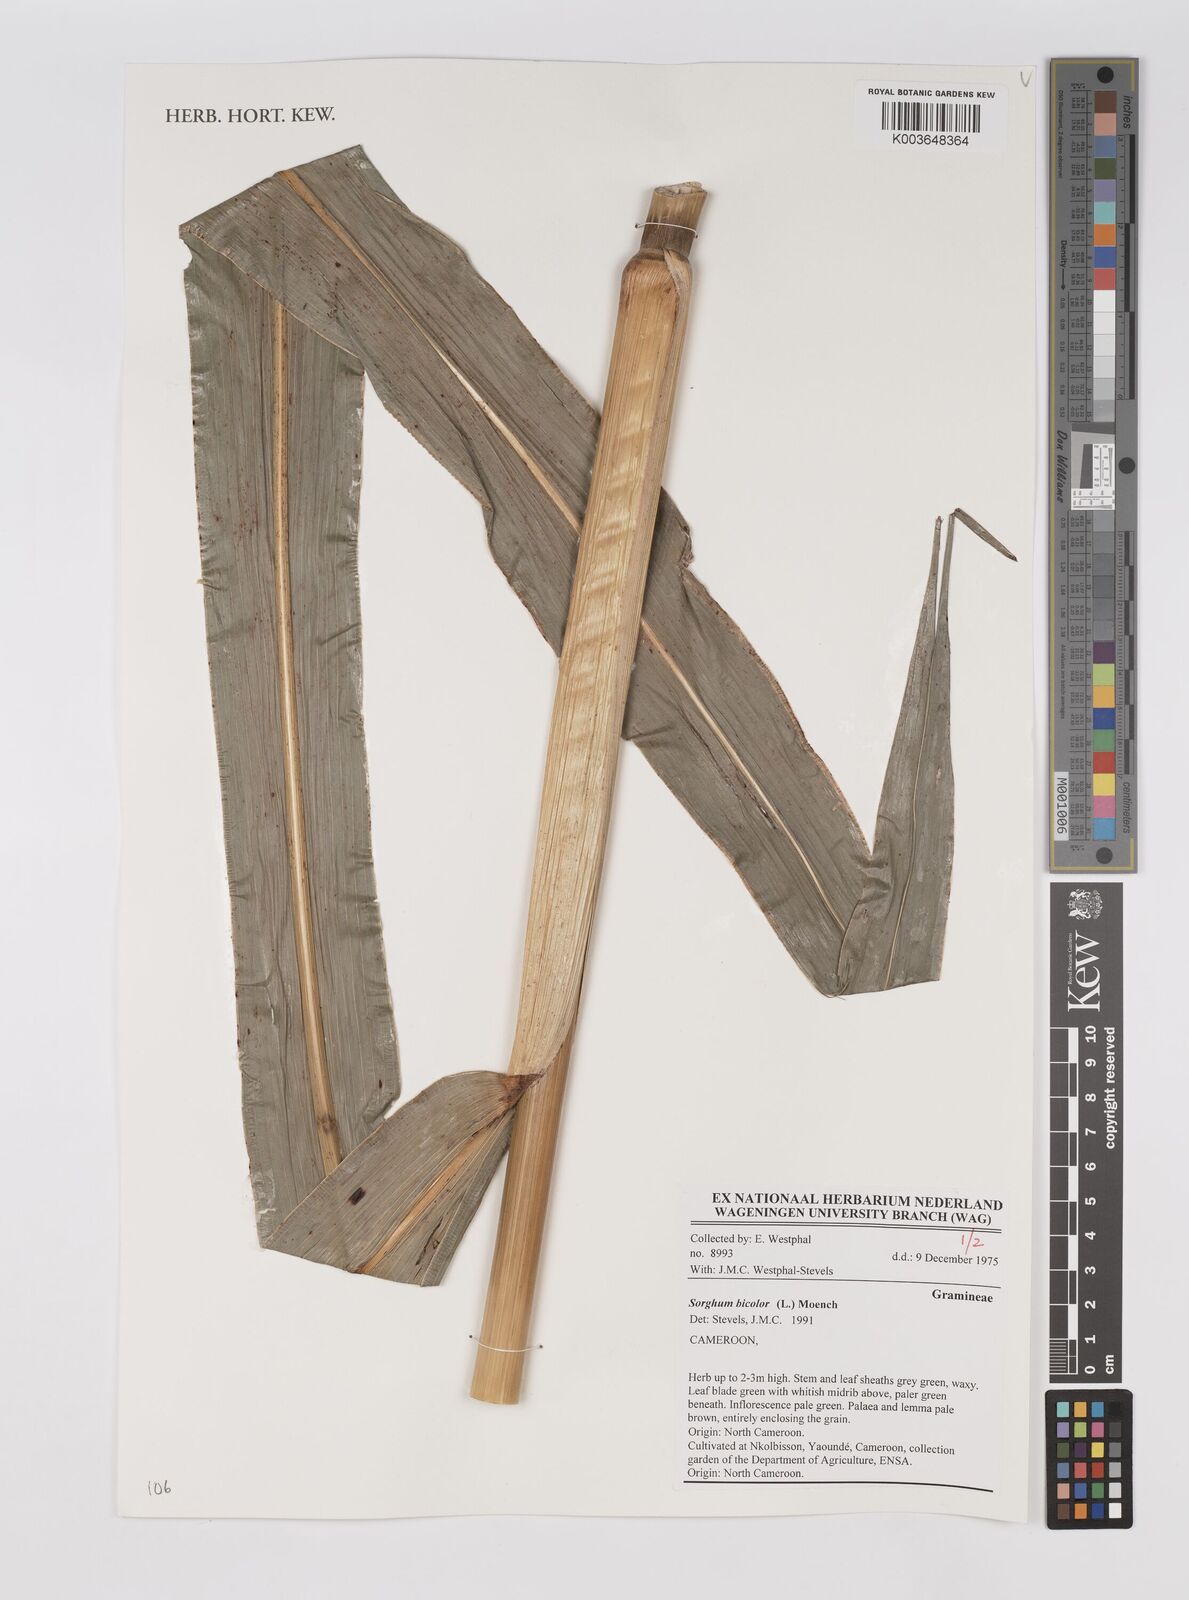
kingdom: Plantae
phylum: Tracheophyta
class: Liliopsida
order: Poales
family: Poaceae
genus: Sorghum
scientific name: Sorghum bicolor
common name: Sorghum
